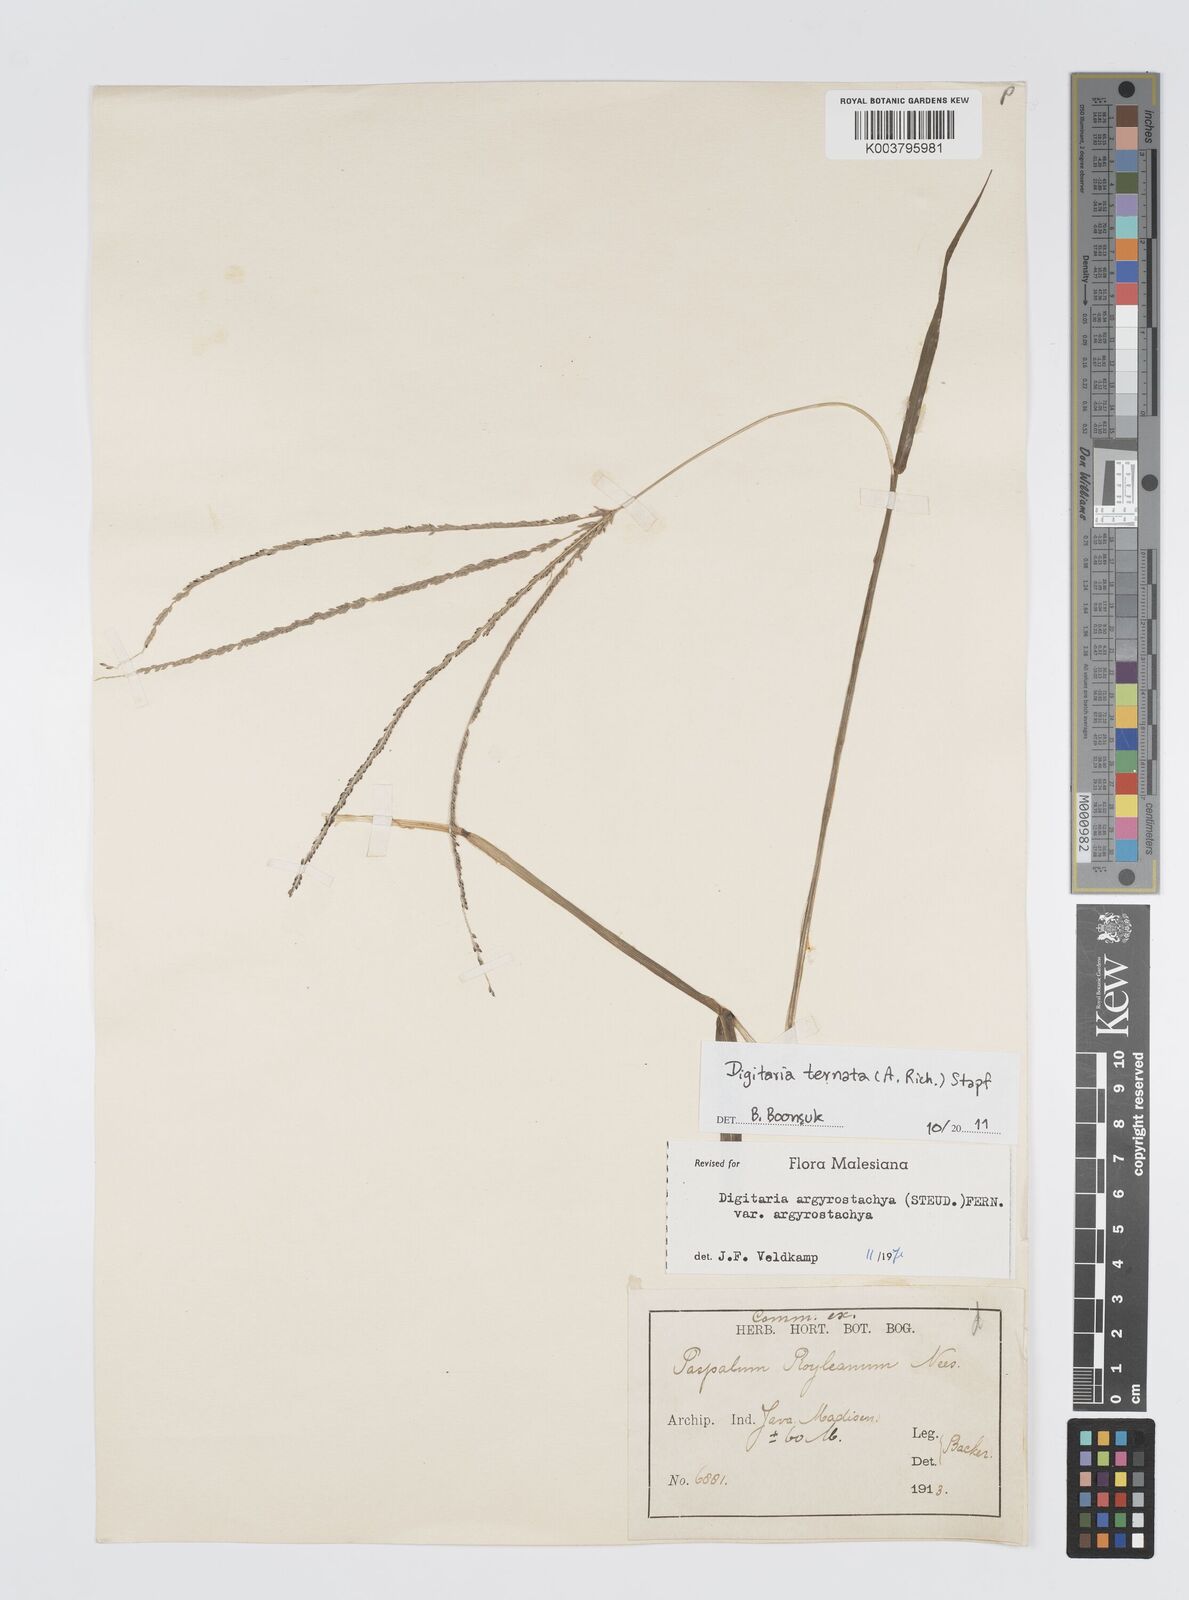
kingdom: Plantae
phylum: Tracheophyta
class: Liliopsida
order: Poales
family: Poaceae
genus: Digitaria
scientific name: Digitaria ternata
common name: Blackseed crabgrass
